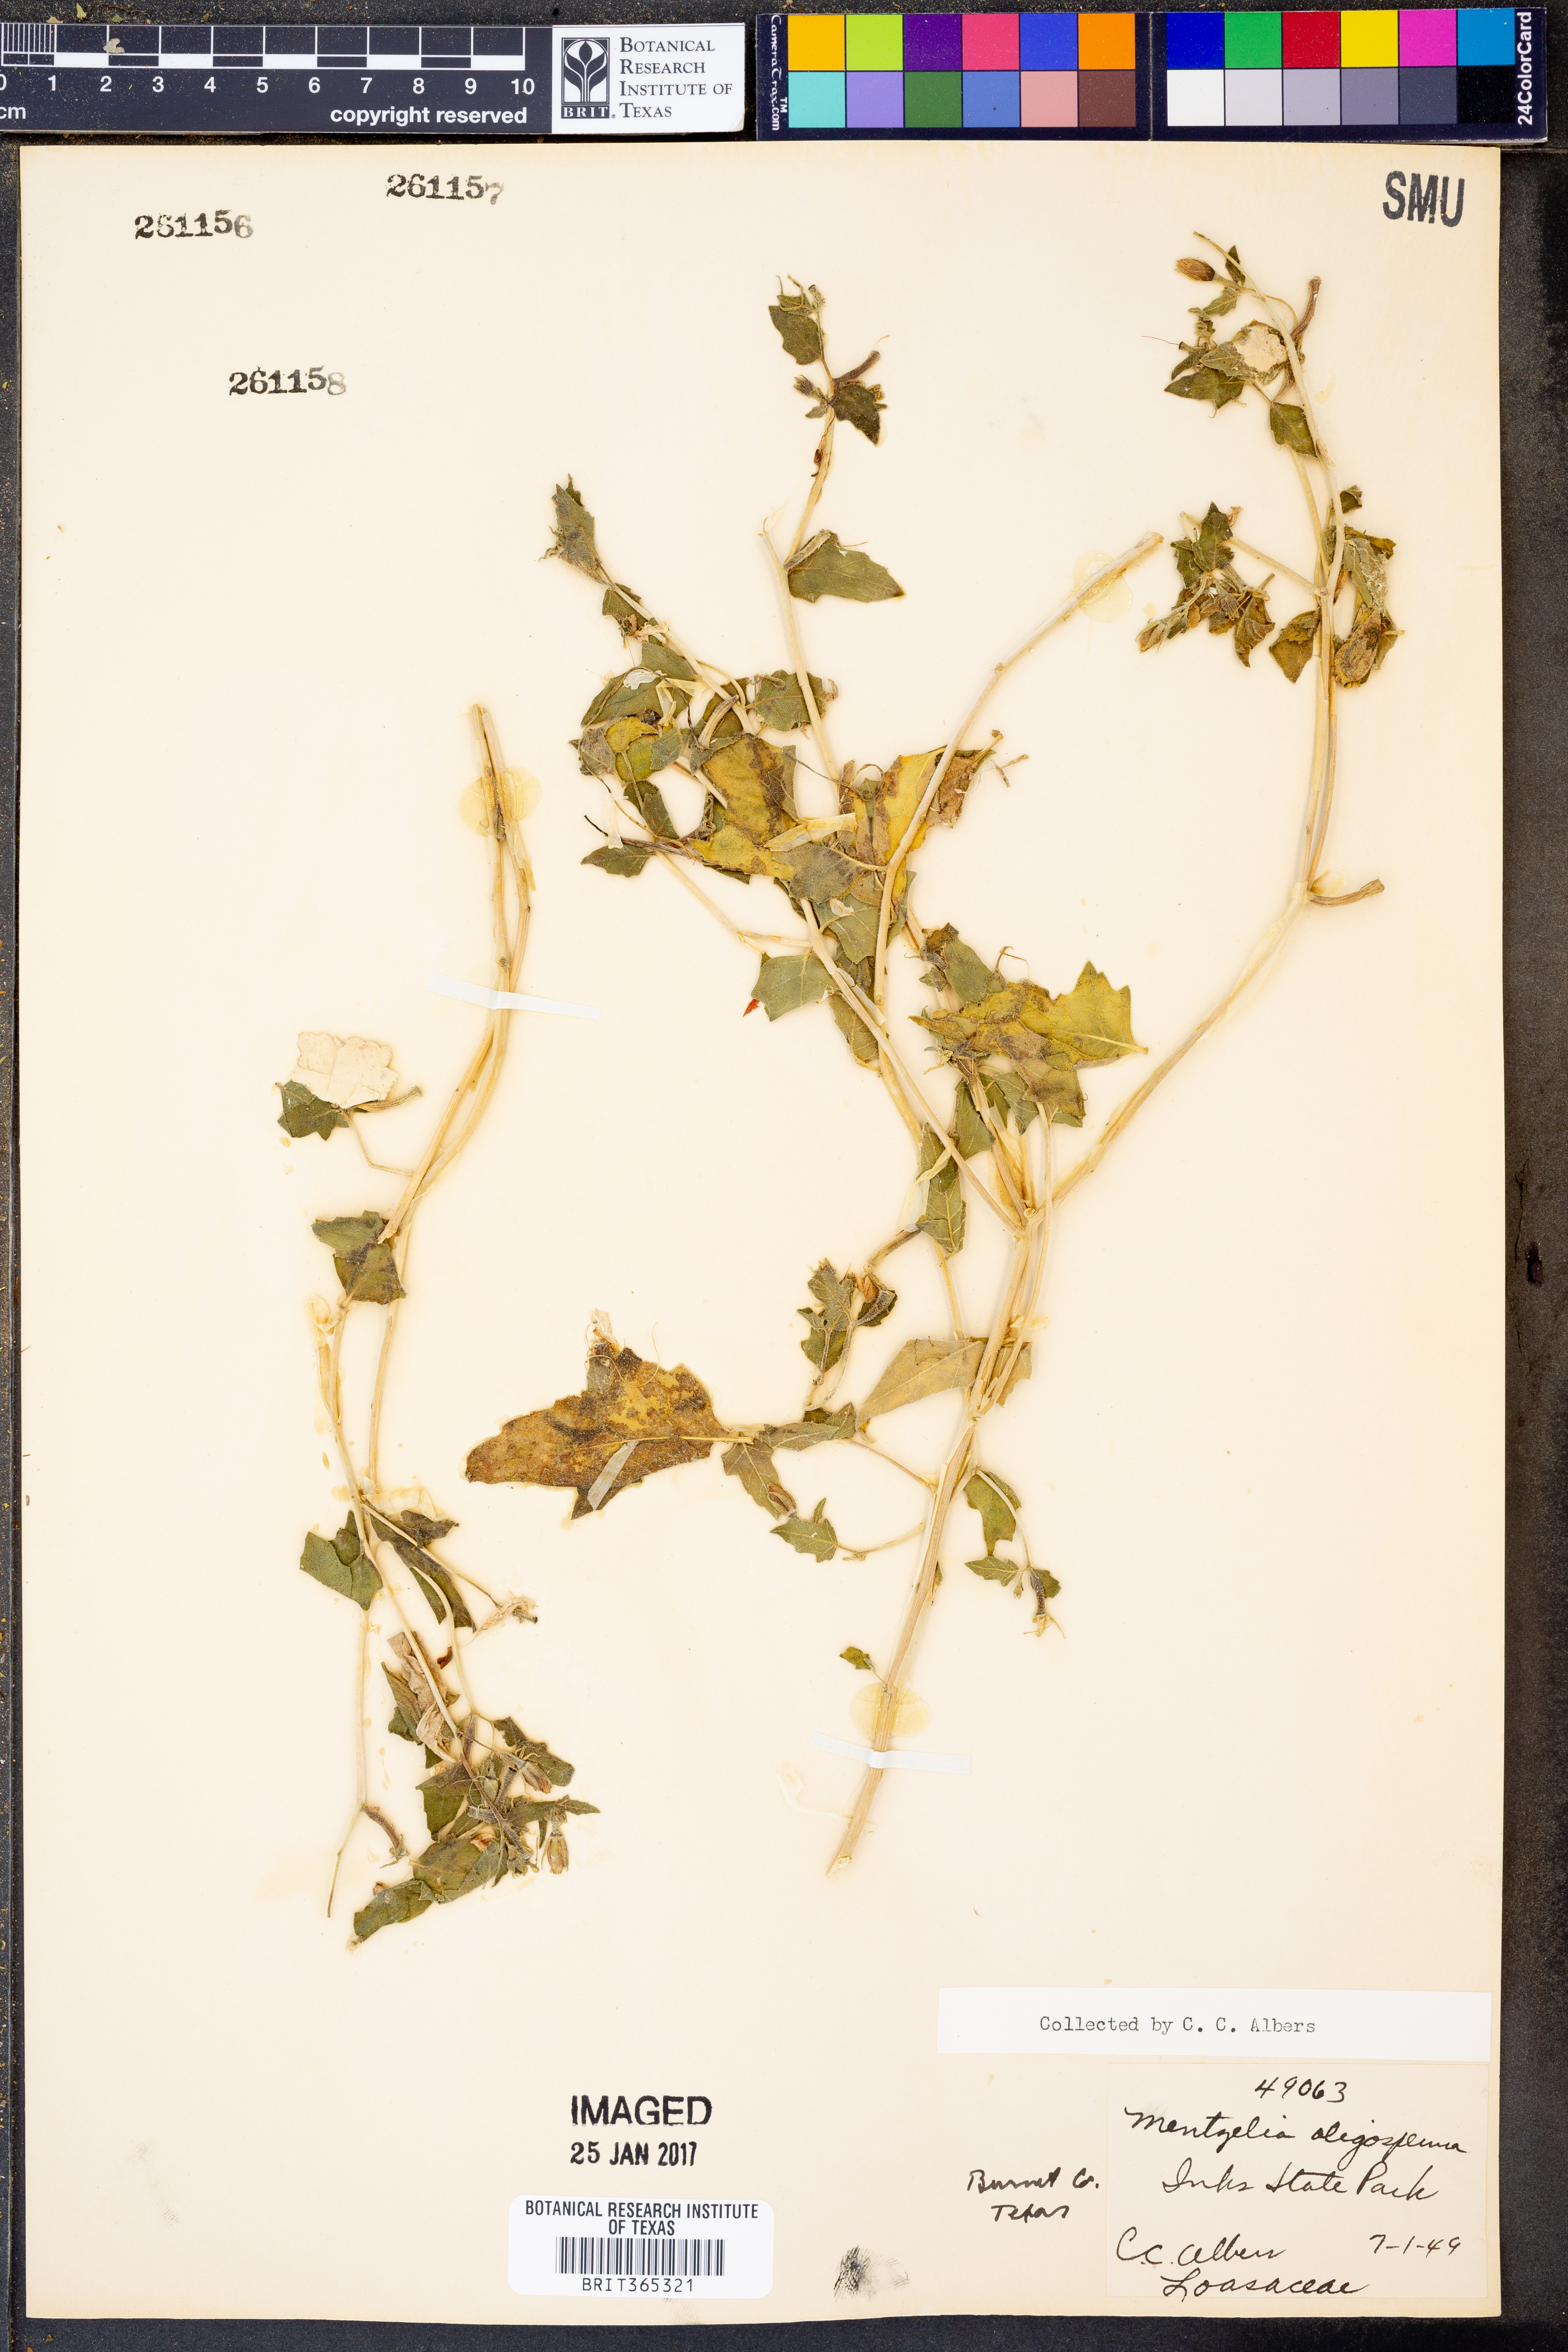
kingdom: Plantae
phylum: Tracheophyta
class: Magnoliopsida
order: Cornales
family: Loasaceae
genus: Mentzelia
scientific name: Mentzelia oligosperma
